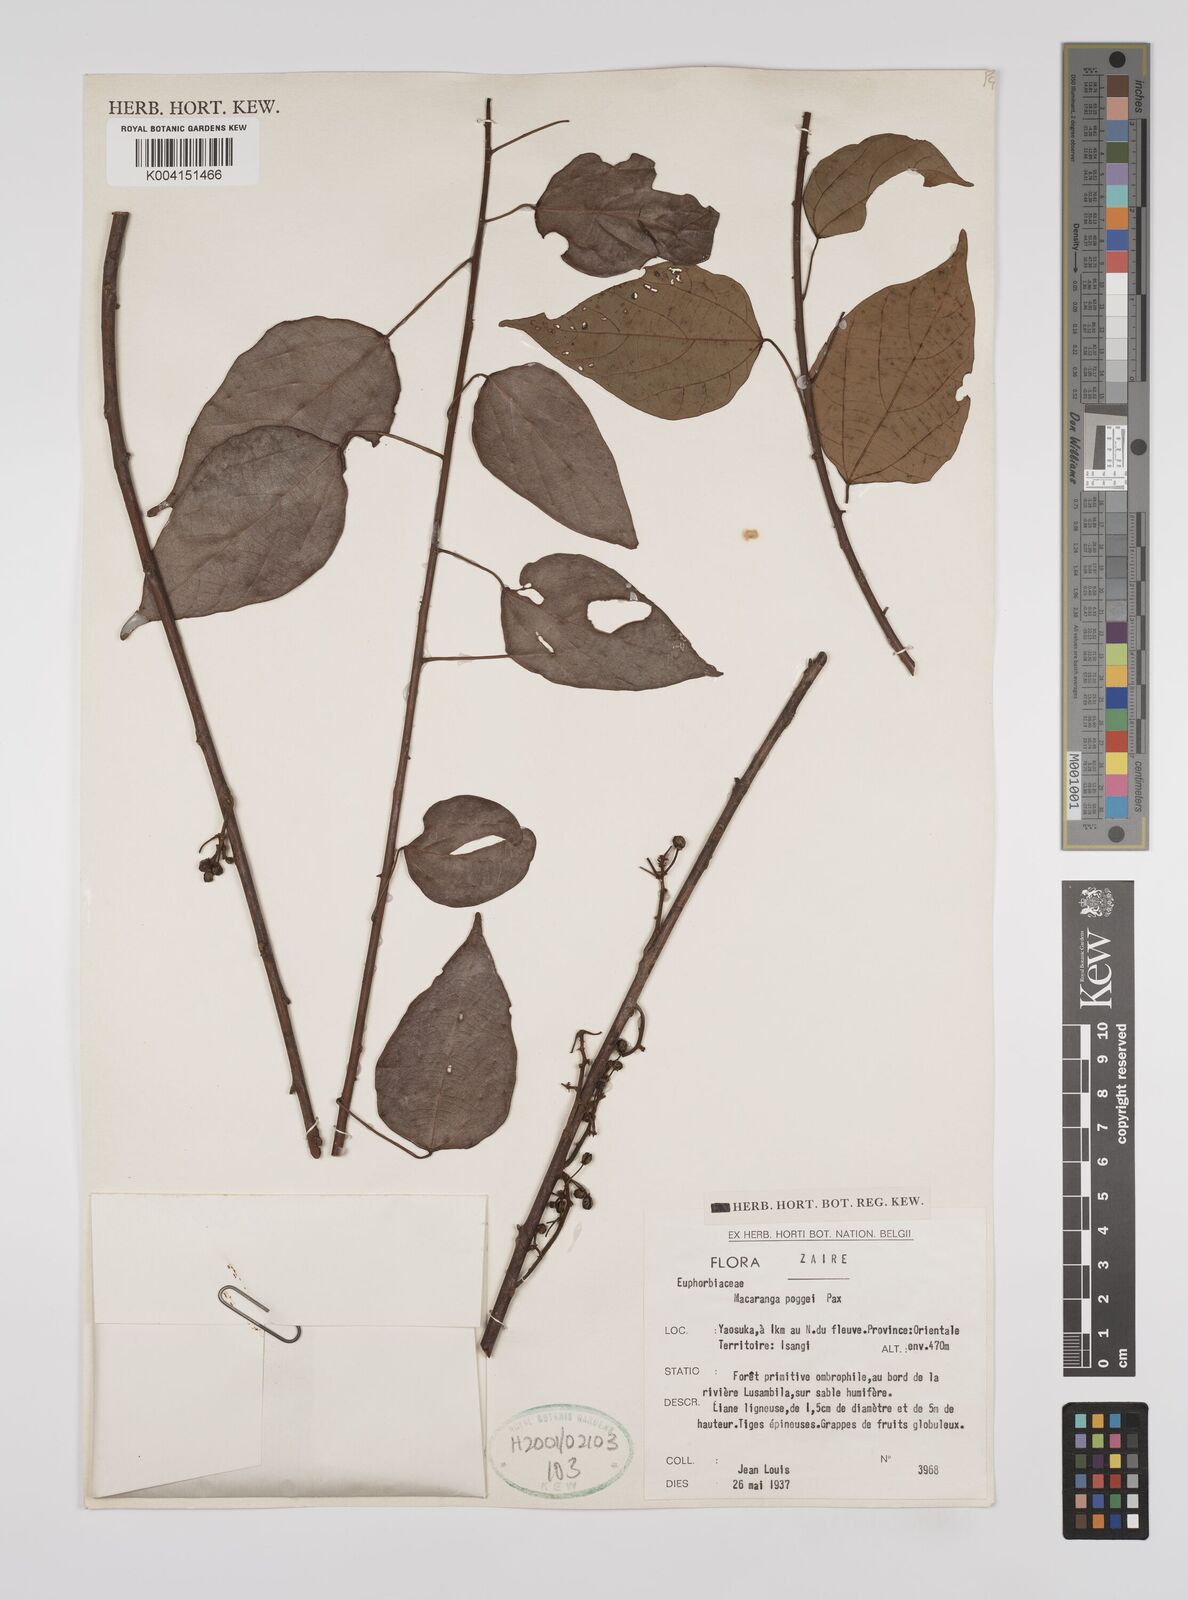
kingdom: Plantae
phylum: Tracheophyta
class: Magnoliopsida
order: Malpighiales
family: Euphorbiaceae
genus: Macaranga
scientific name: Macaranga poggei
